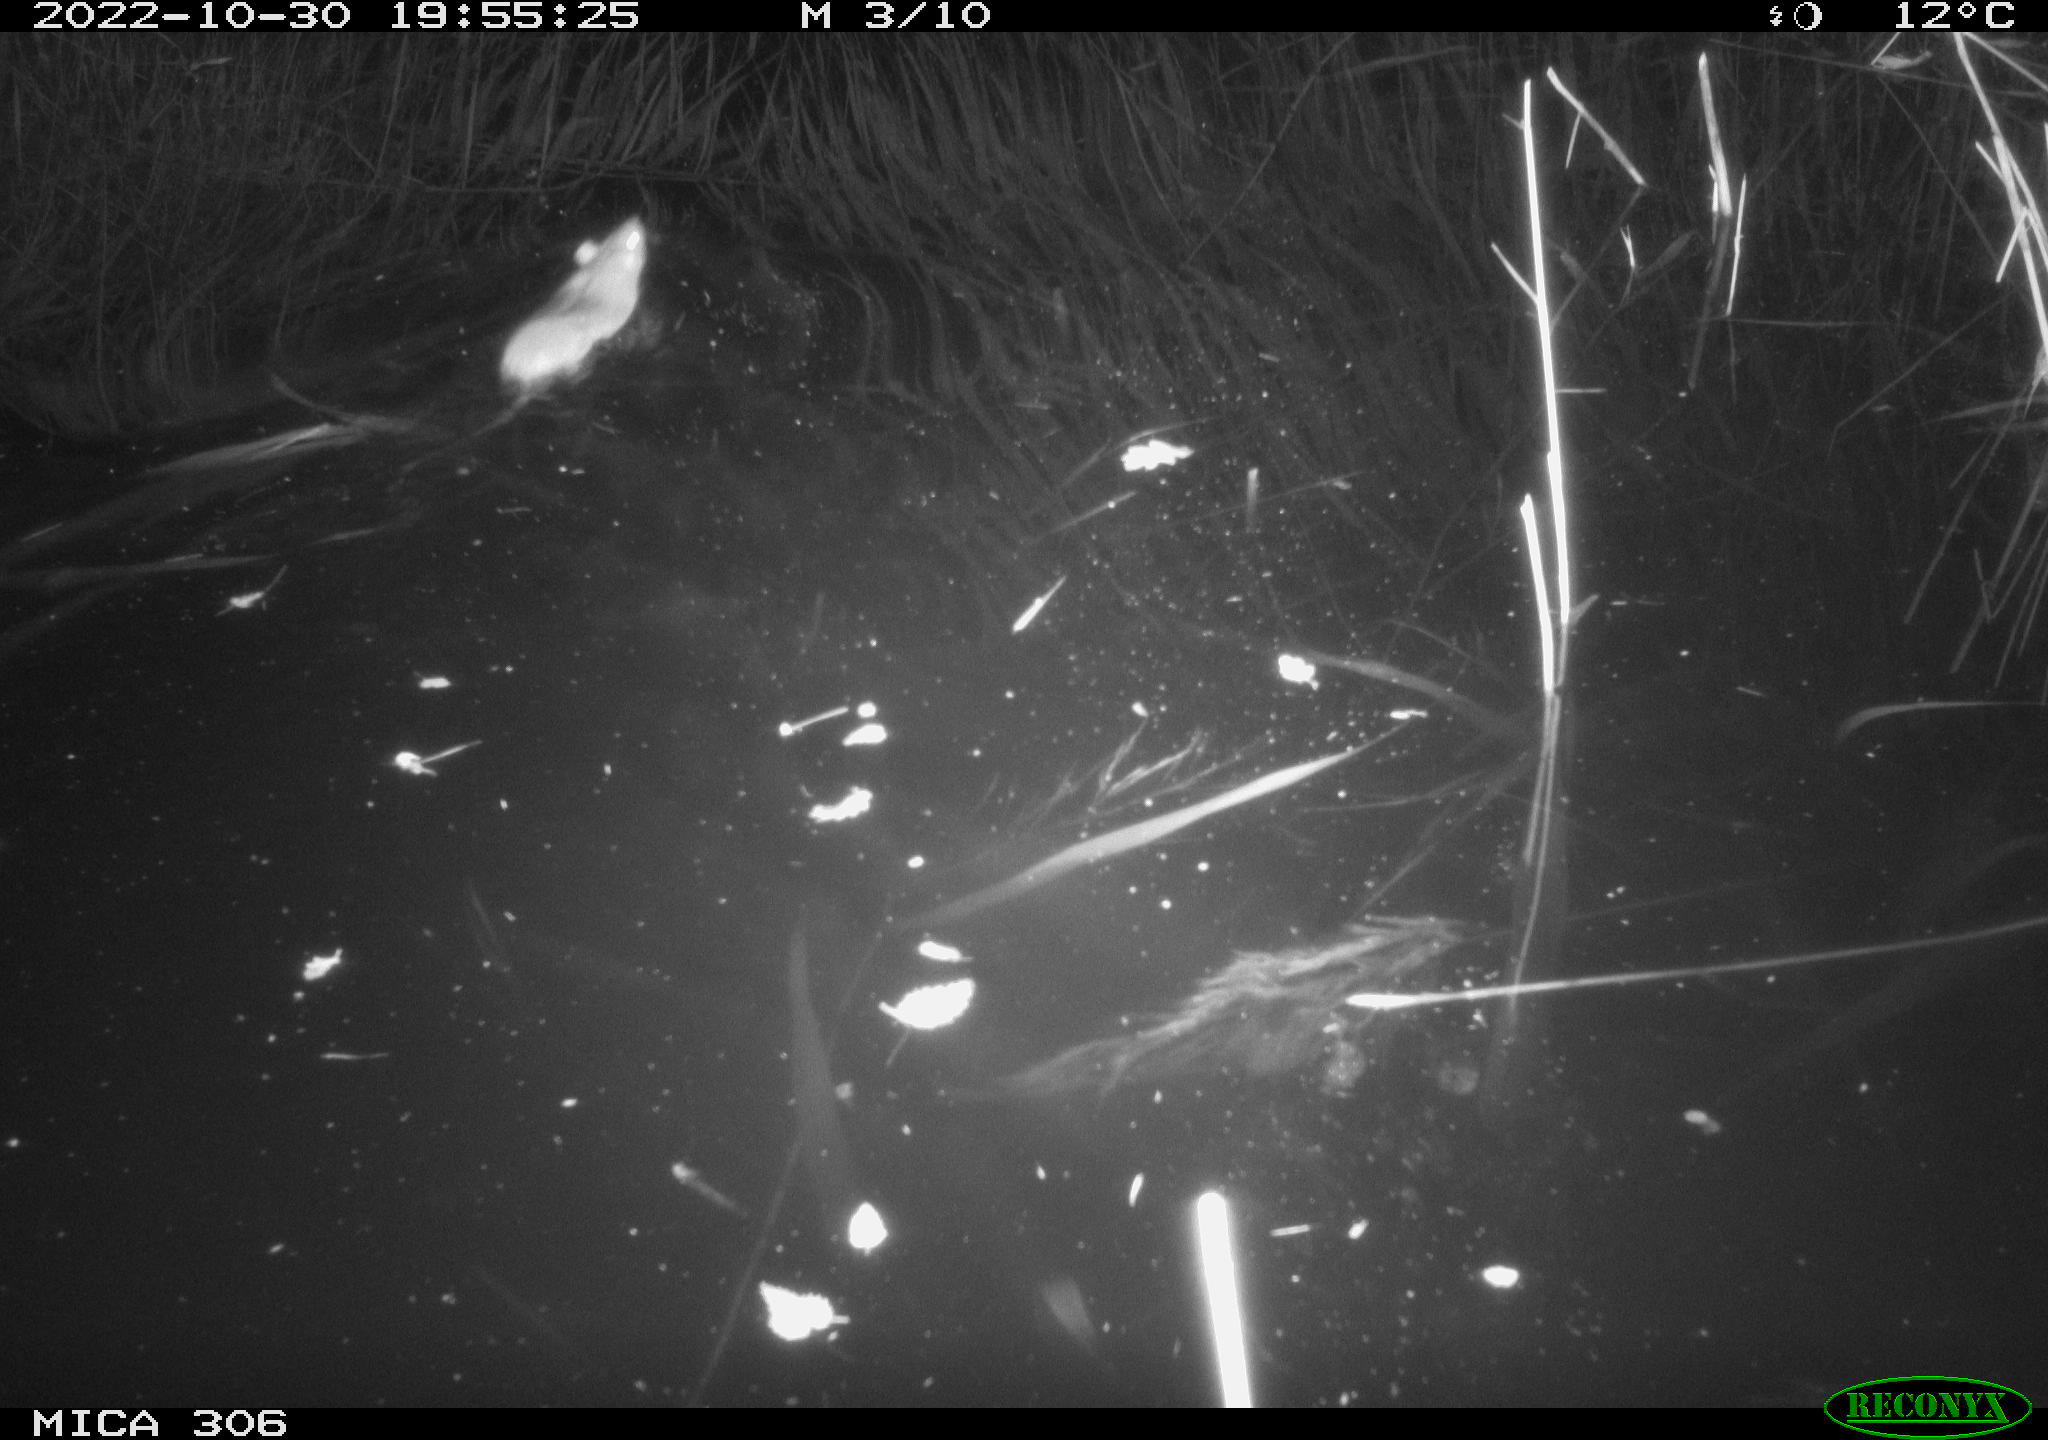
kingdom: Animalia
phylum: Chordata
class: Mammalia
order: Rodentia
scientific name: Rodentia
